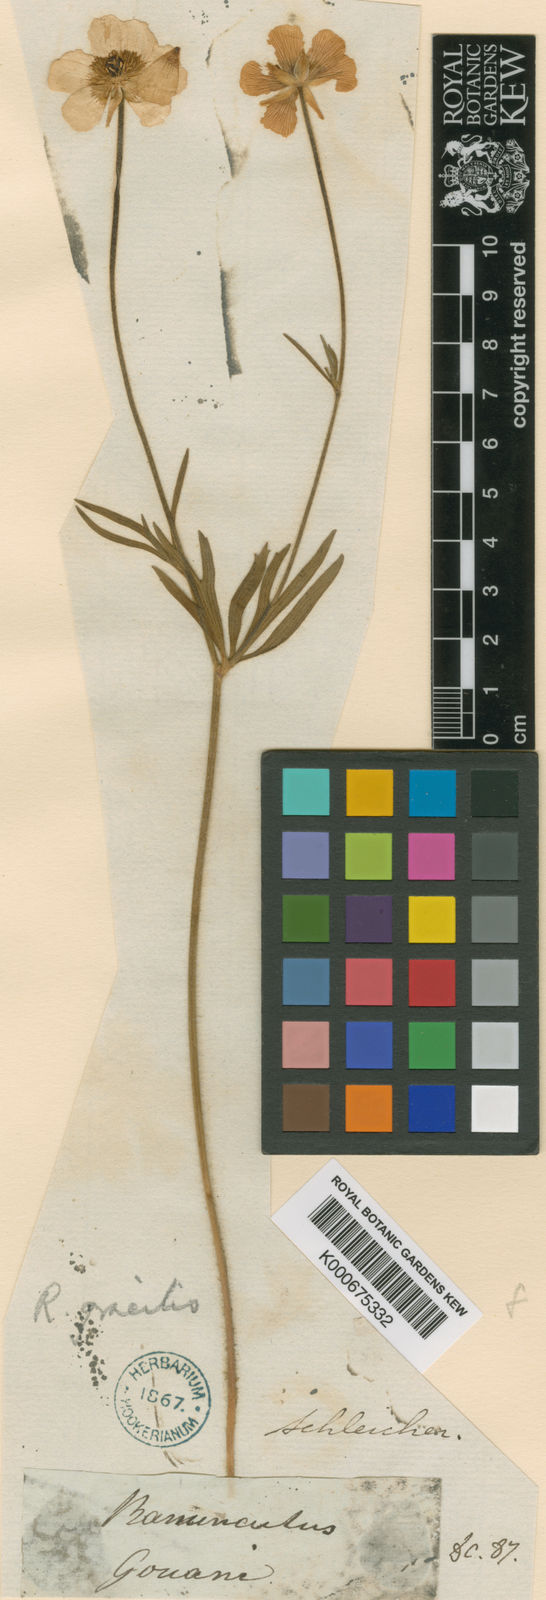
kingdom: Plantae
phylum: Tracheophyta
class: Magnoliopsida
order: Ranunculales
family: Ranunculaceae
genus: Ranunculus
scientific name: Ranunculus carinthiacus
